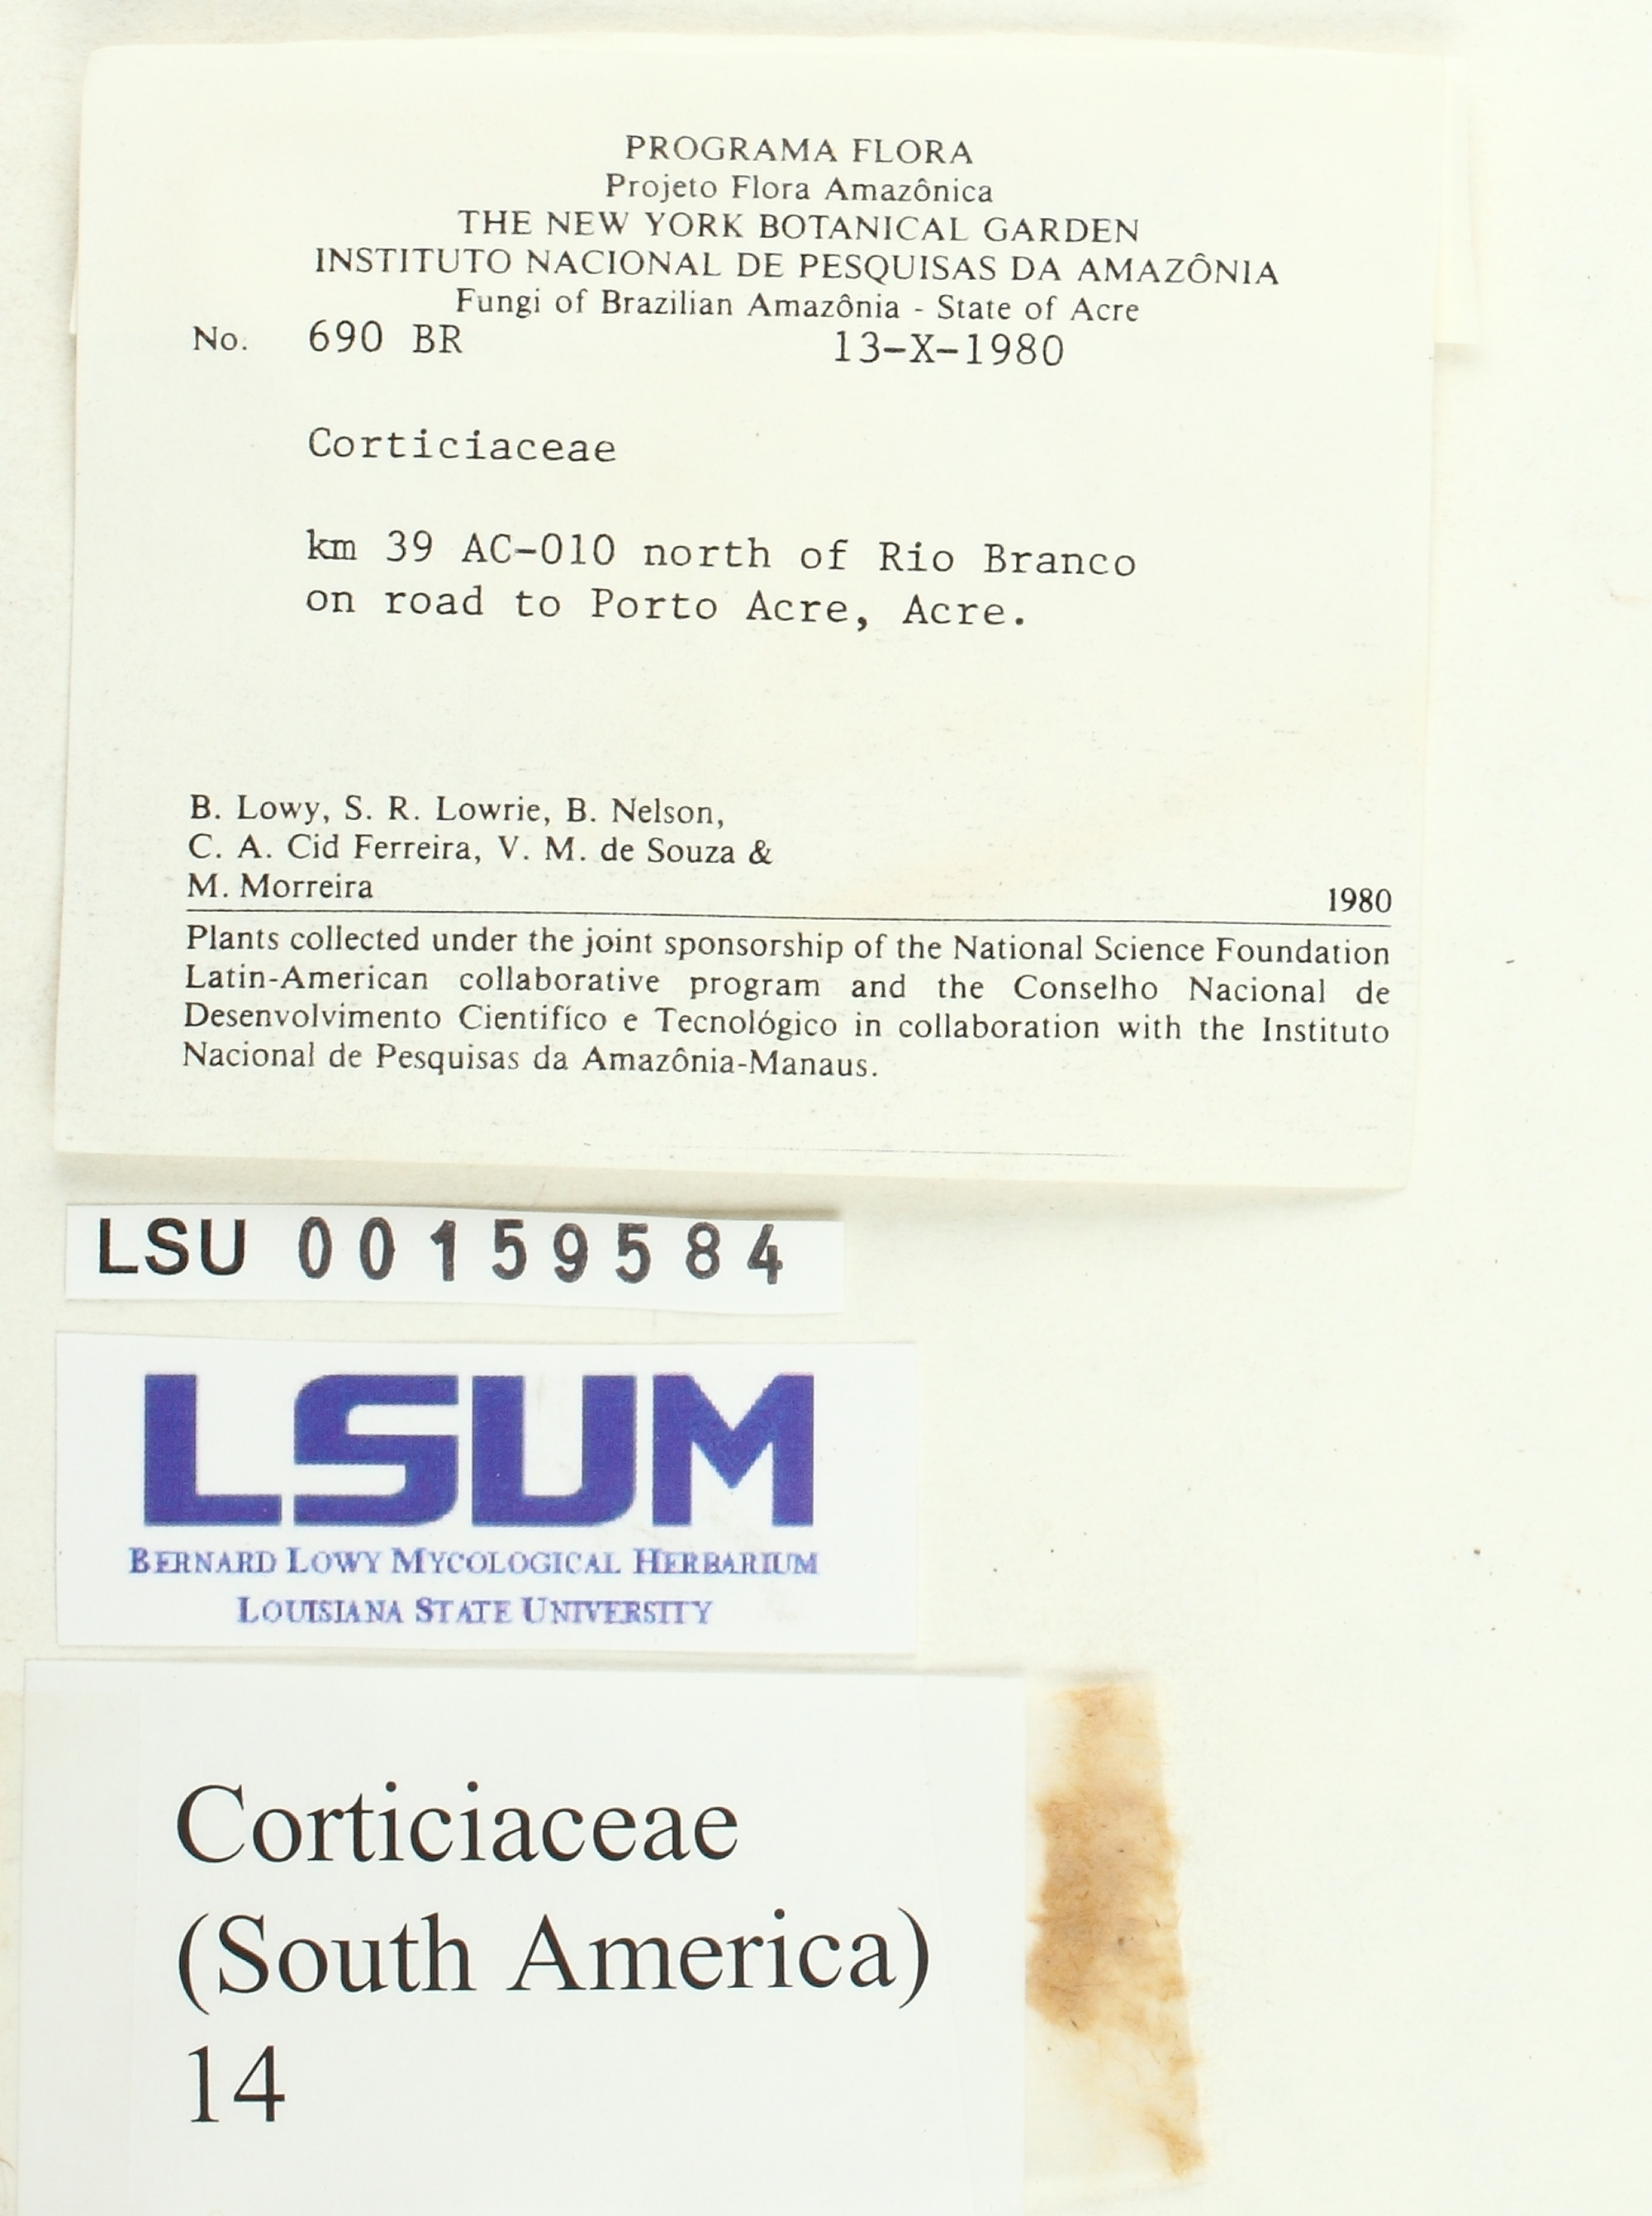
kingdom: Fungi
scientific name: Fungi
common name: Fungi
